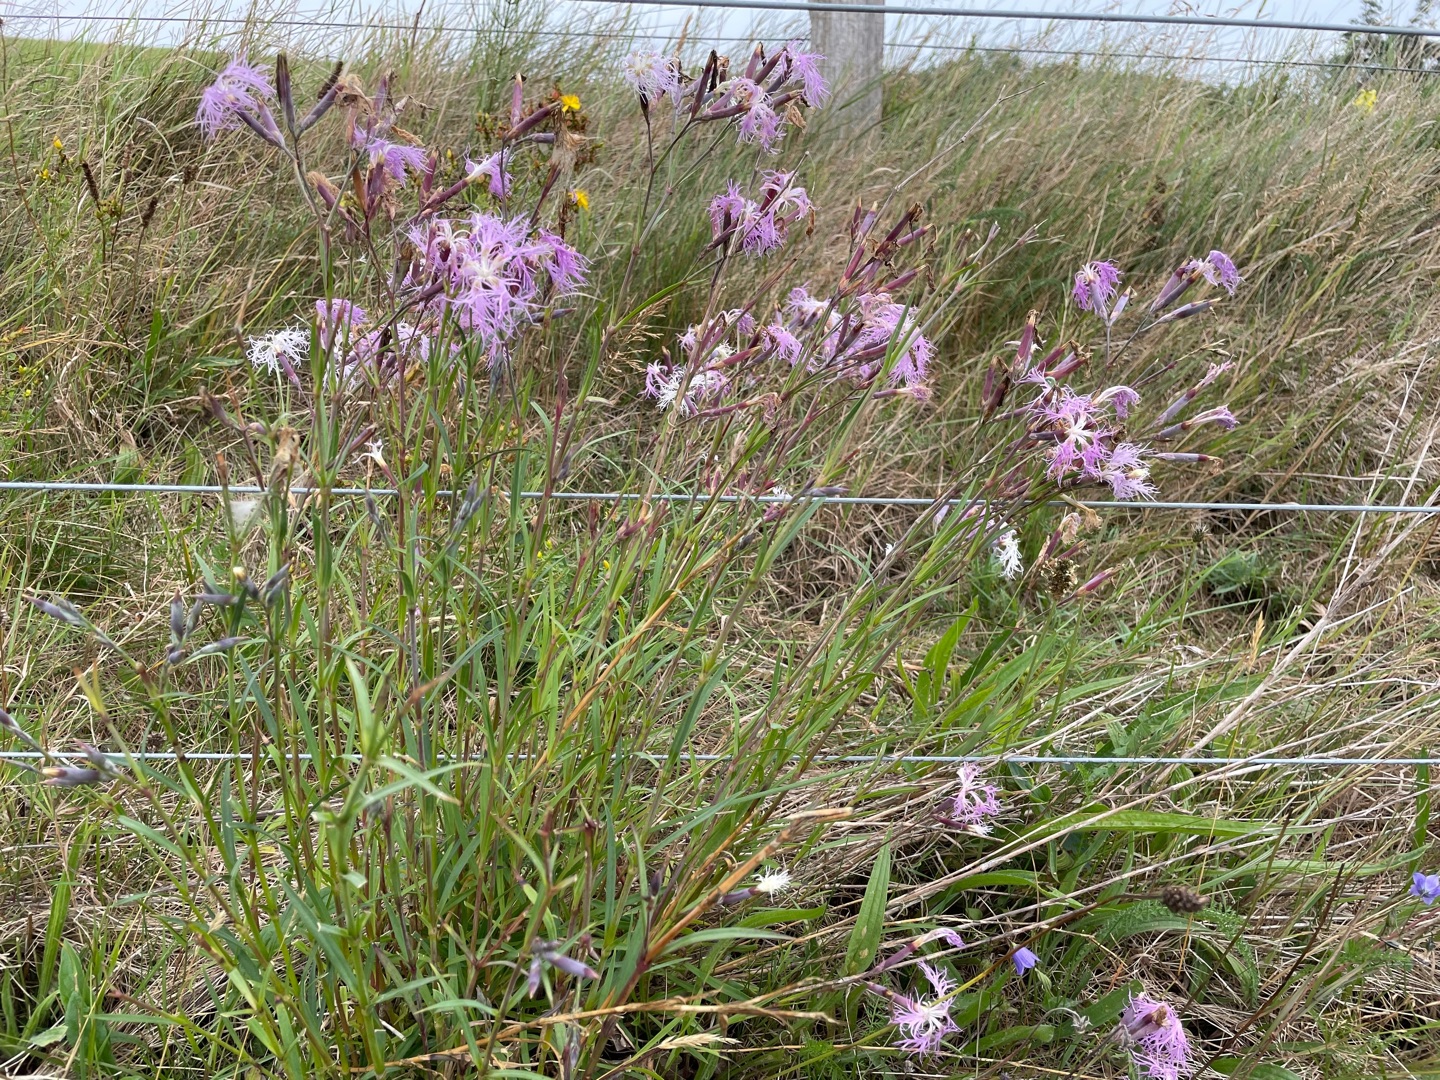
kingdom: Plantae
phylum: Tracheophyta
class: Magnoliopsida
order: Caryophyllales
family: Caryophyllaceae
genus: Dianthus
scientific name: Dianthus superbus
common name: Strand-nellike
